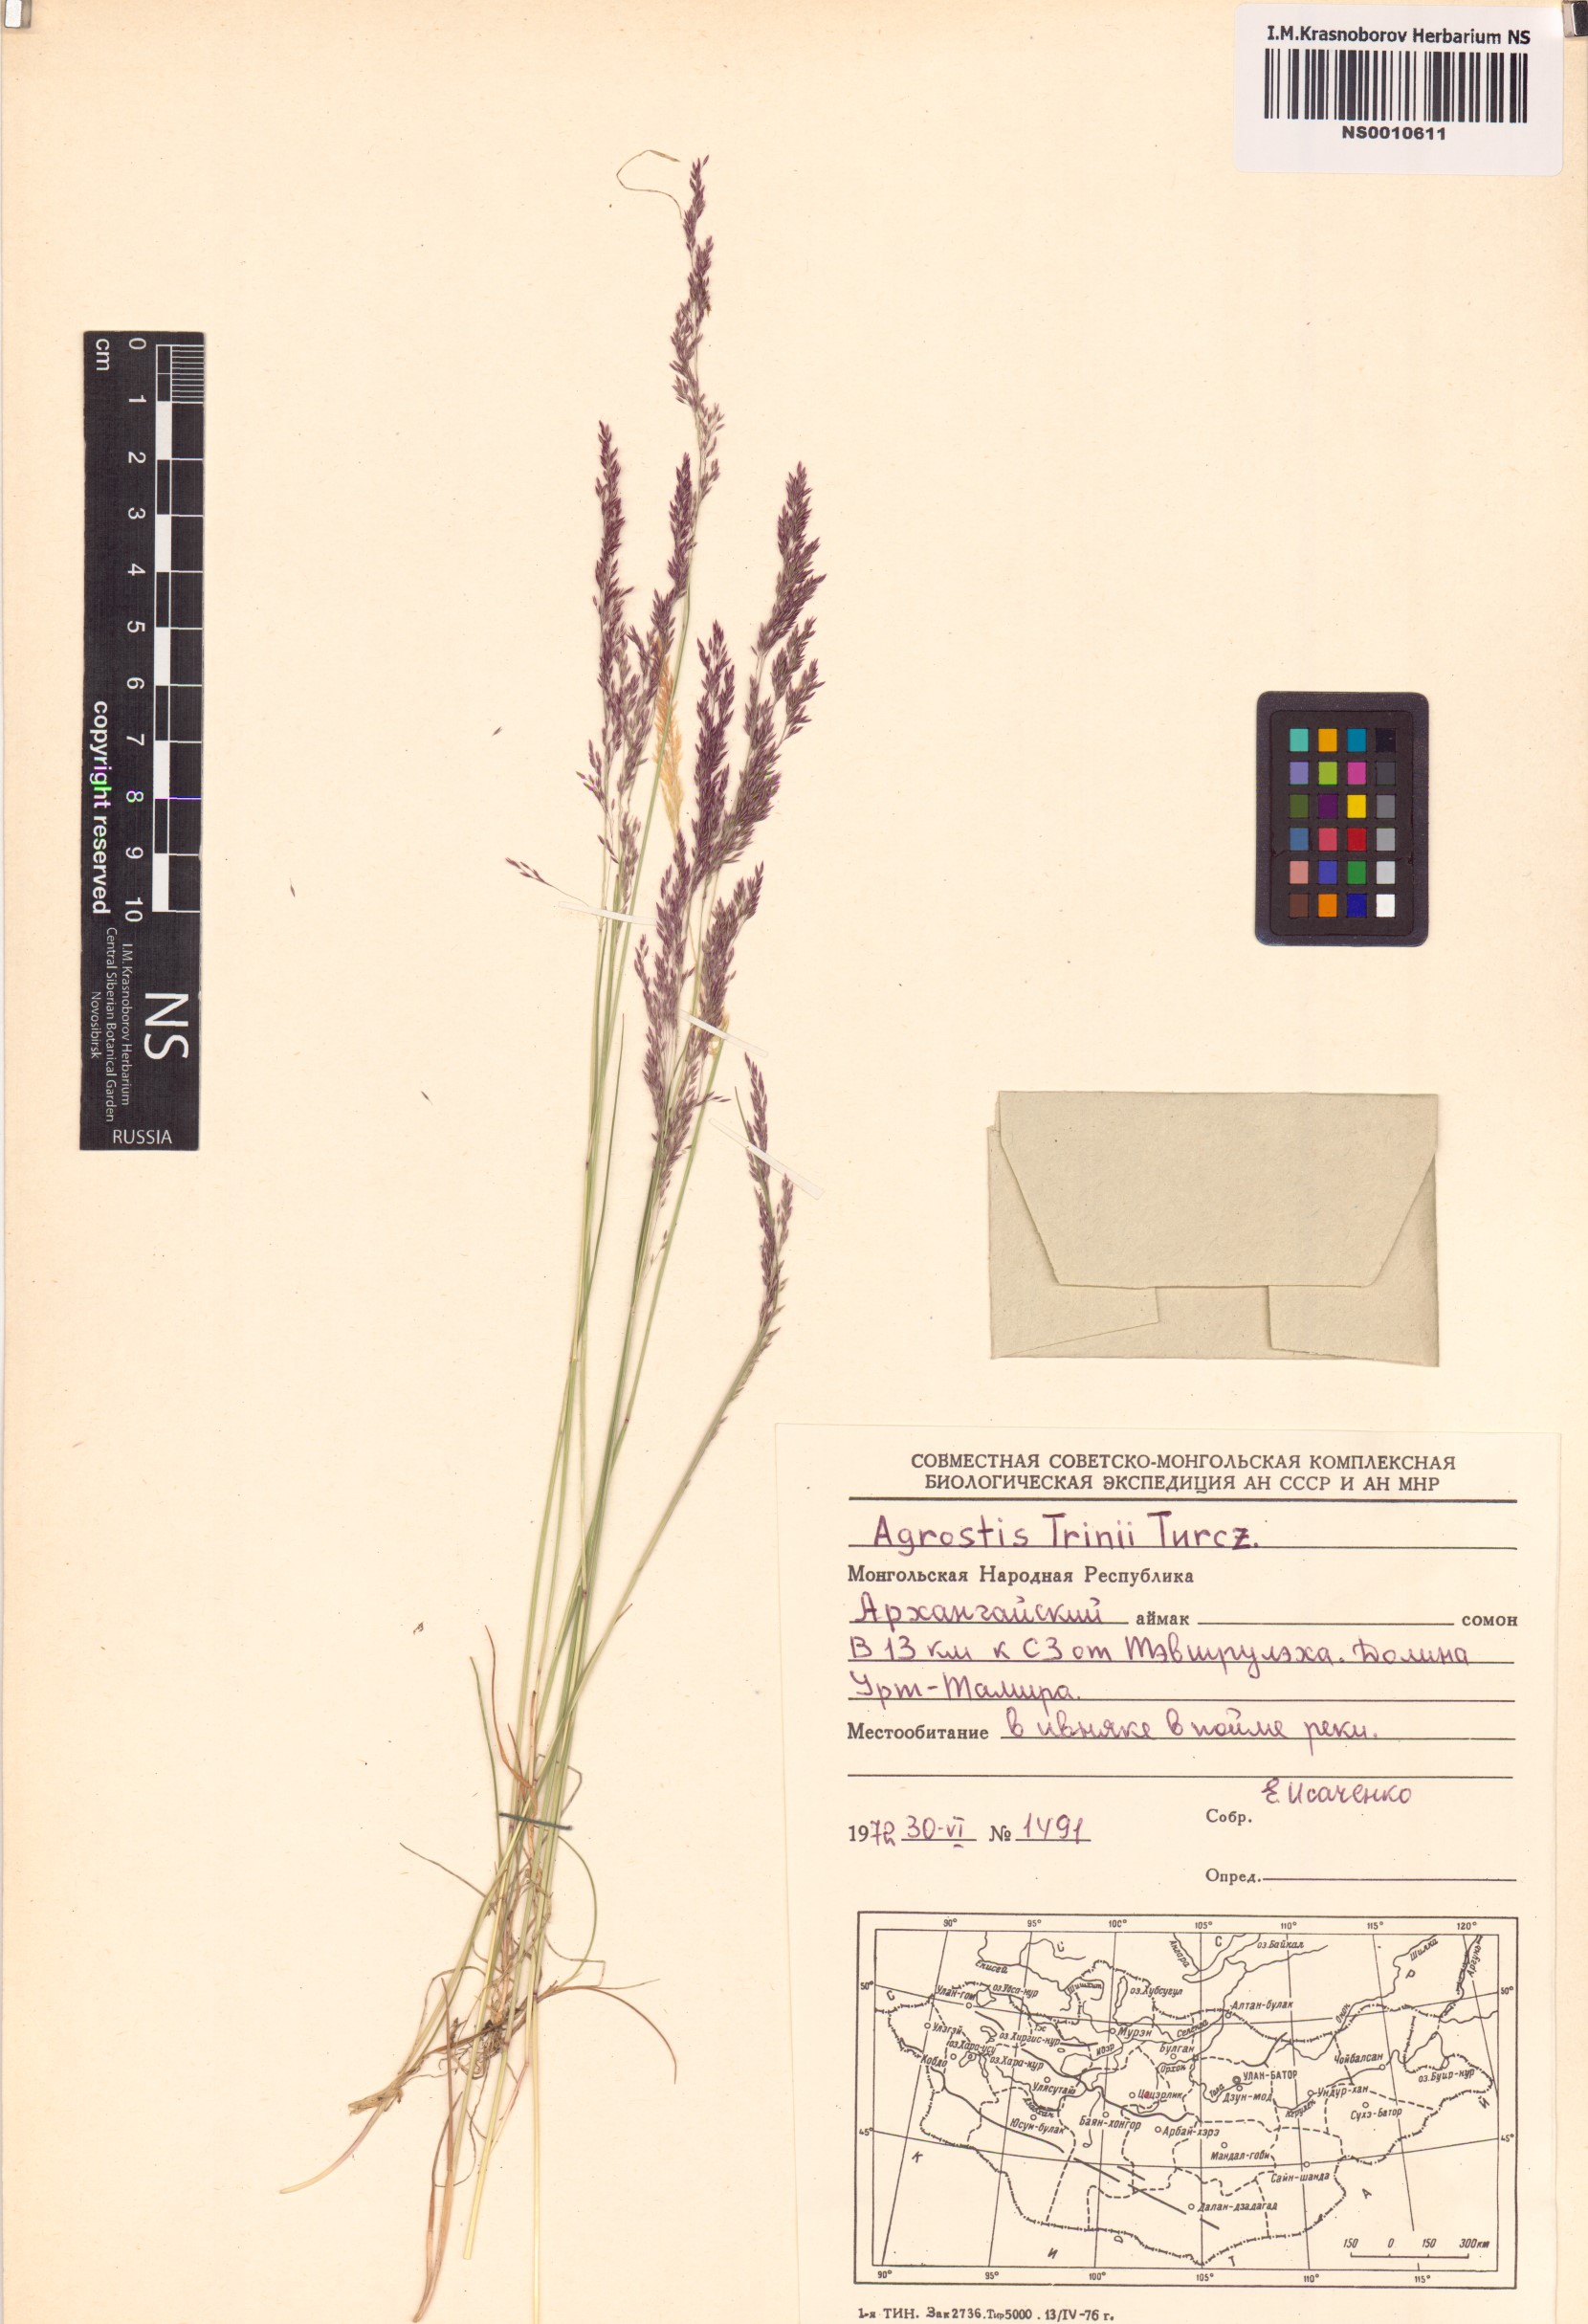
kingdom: Plantae
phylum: Tracheophyta
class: Liliopsida
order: Poales
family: Poaceae
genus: Agrostis
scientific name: Agrostis vinealis
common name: Brown bent
